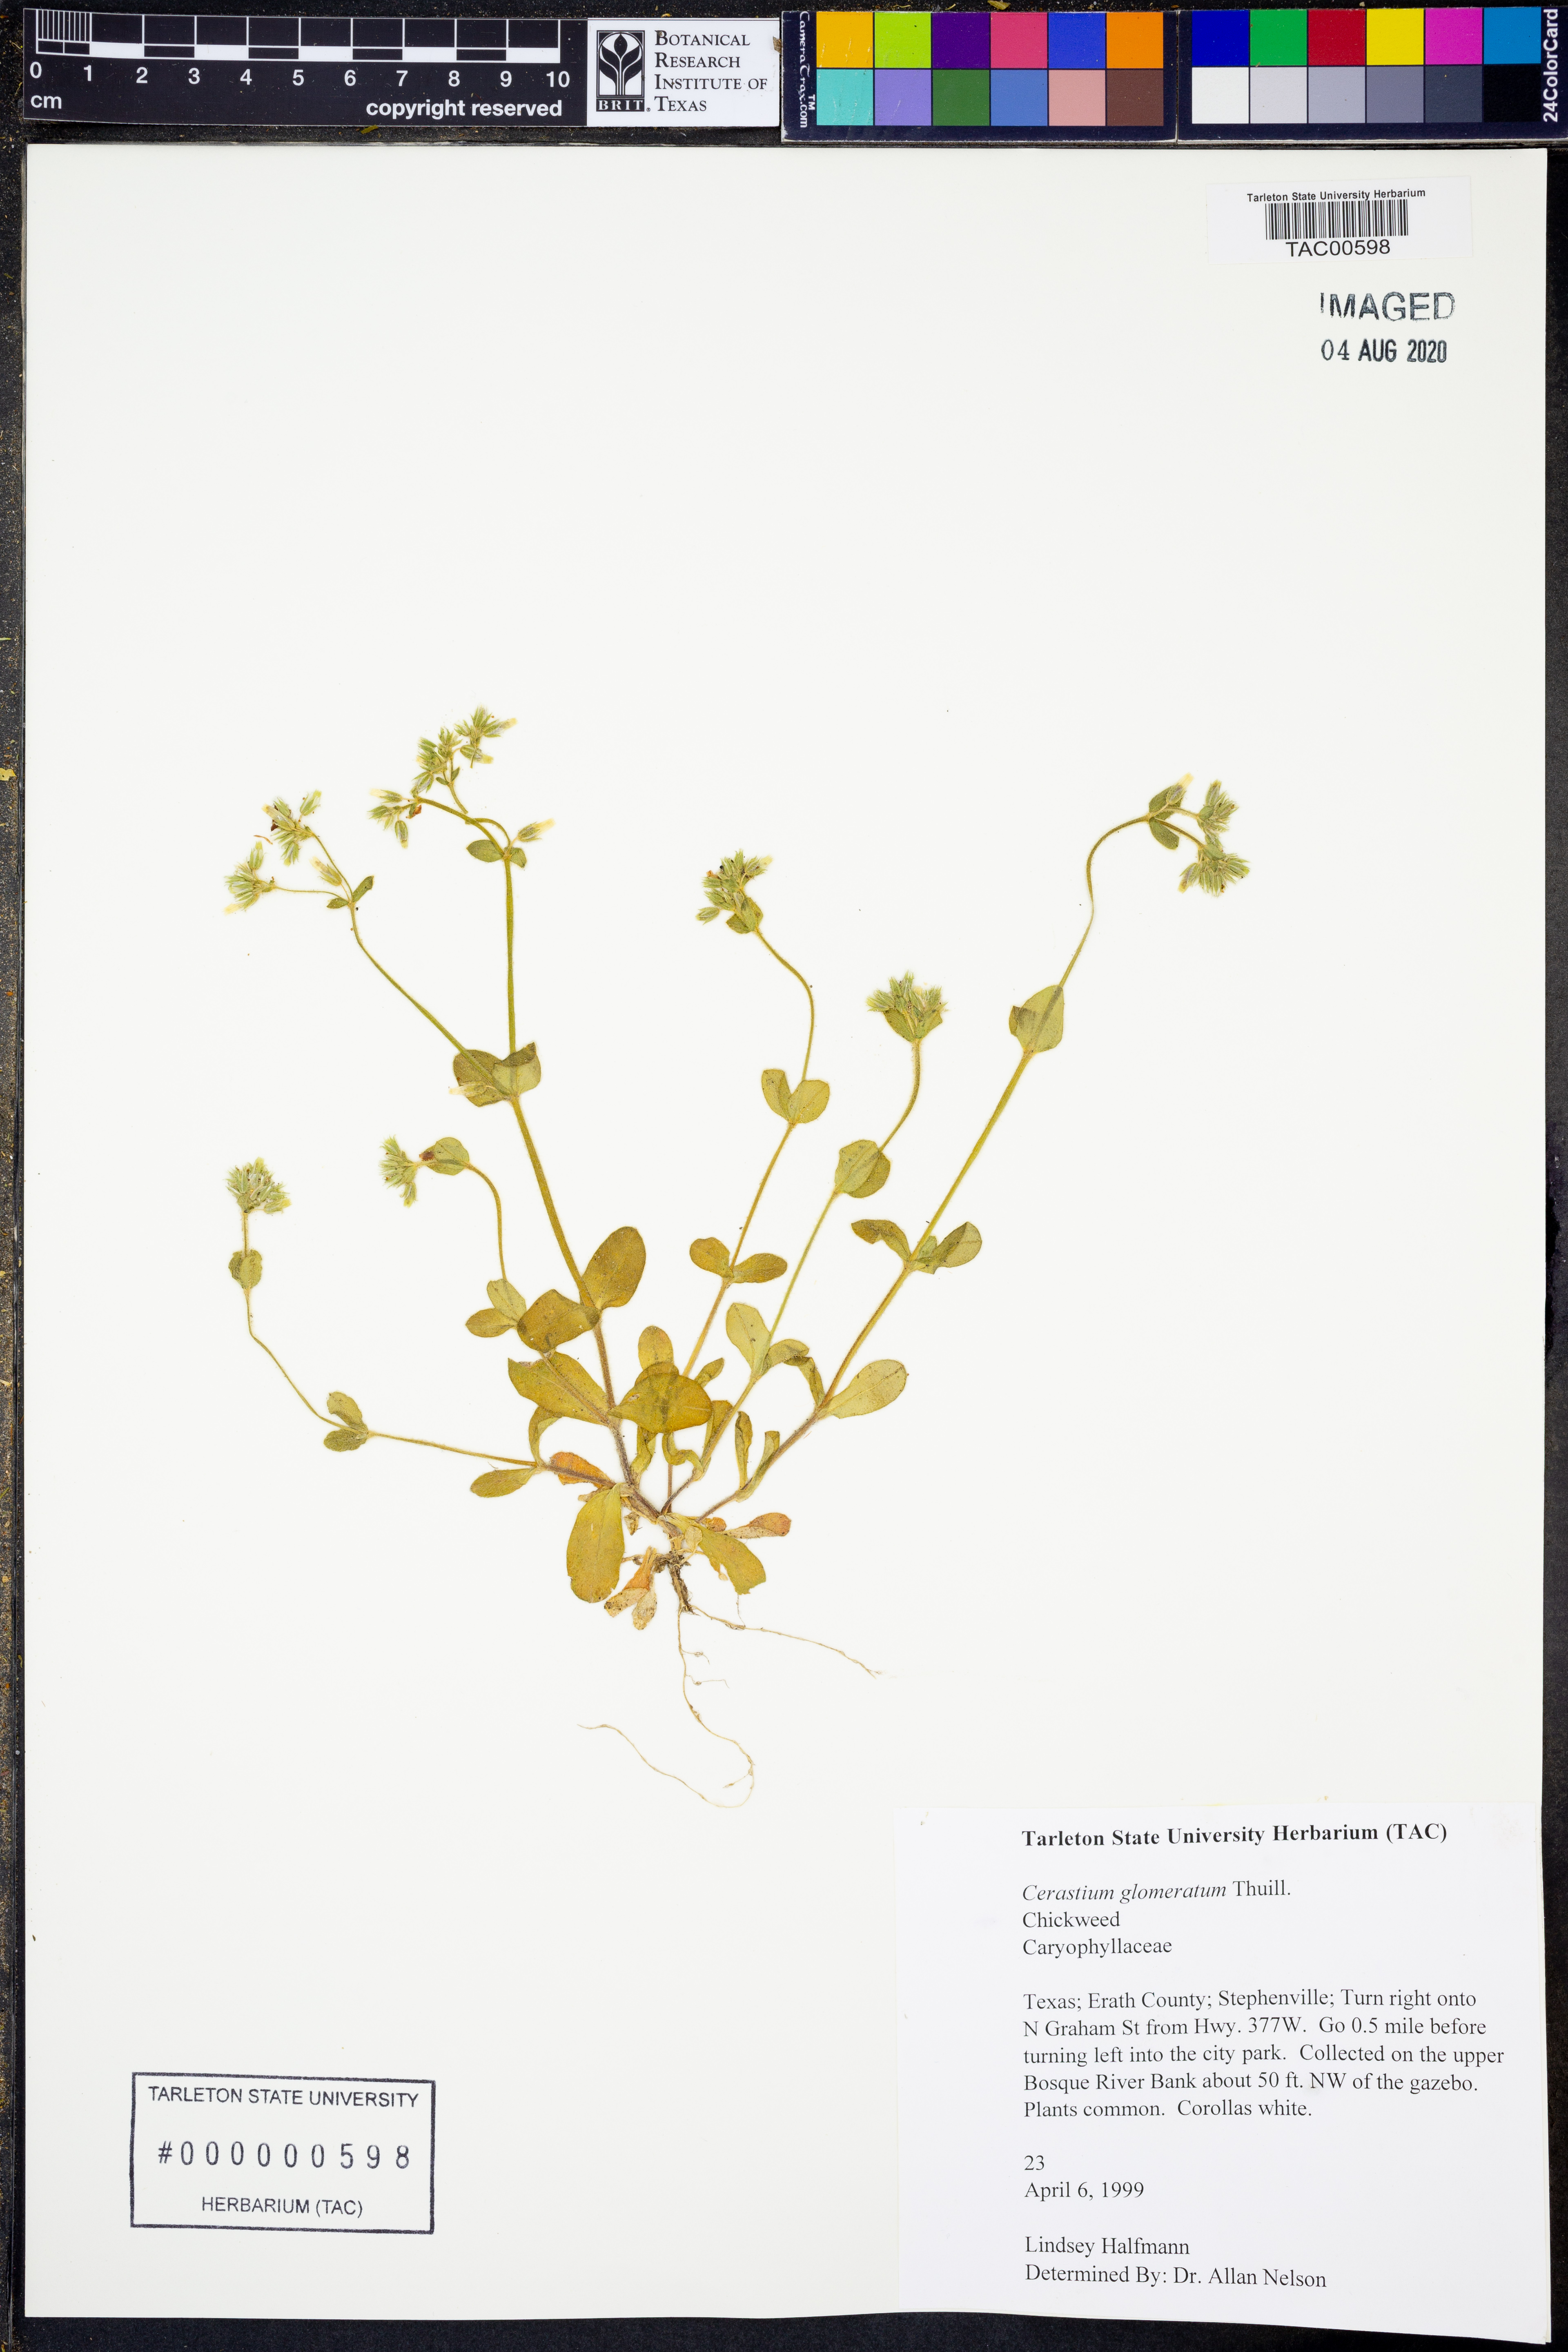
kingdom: Plantae
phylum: Tracheophyta
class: Magnoliopsida
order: Caryophyllales
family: Caryophyllaceae
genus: Cerastium
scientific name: Cerastium glomeratum
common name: Sticky chickweed
